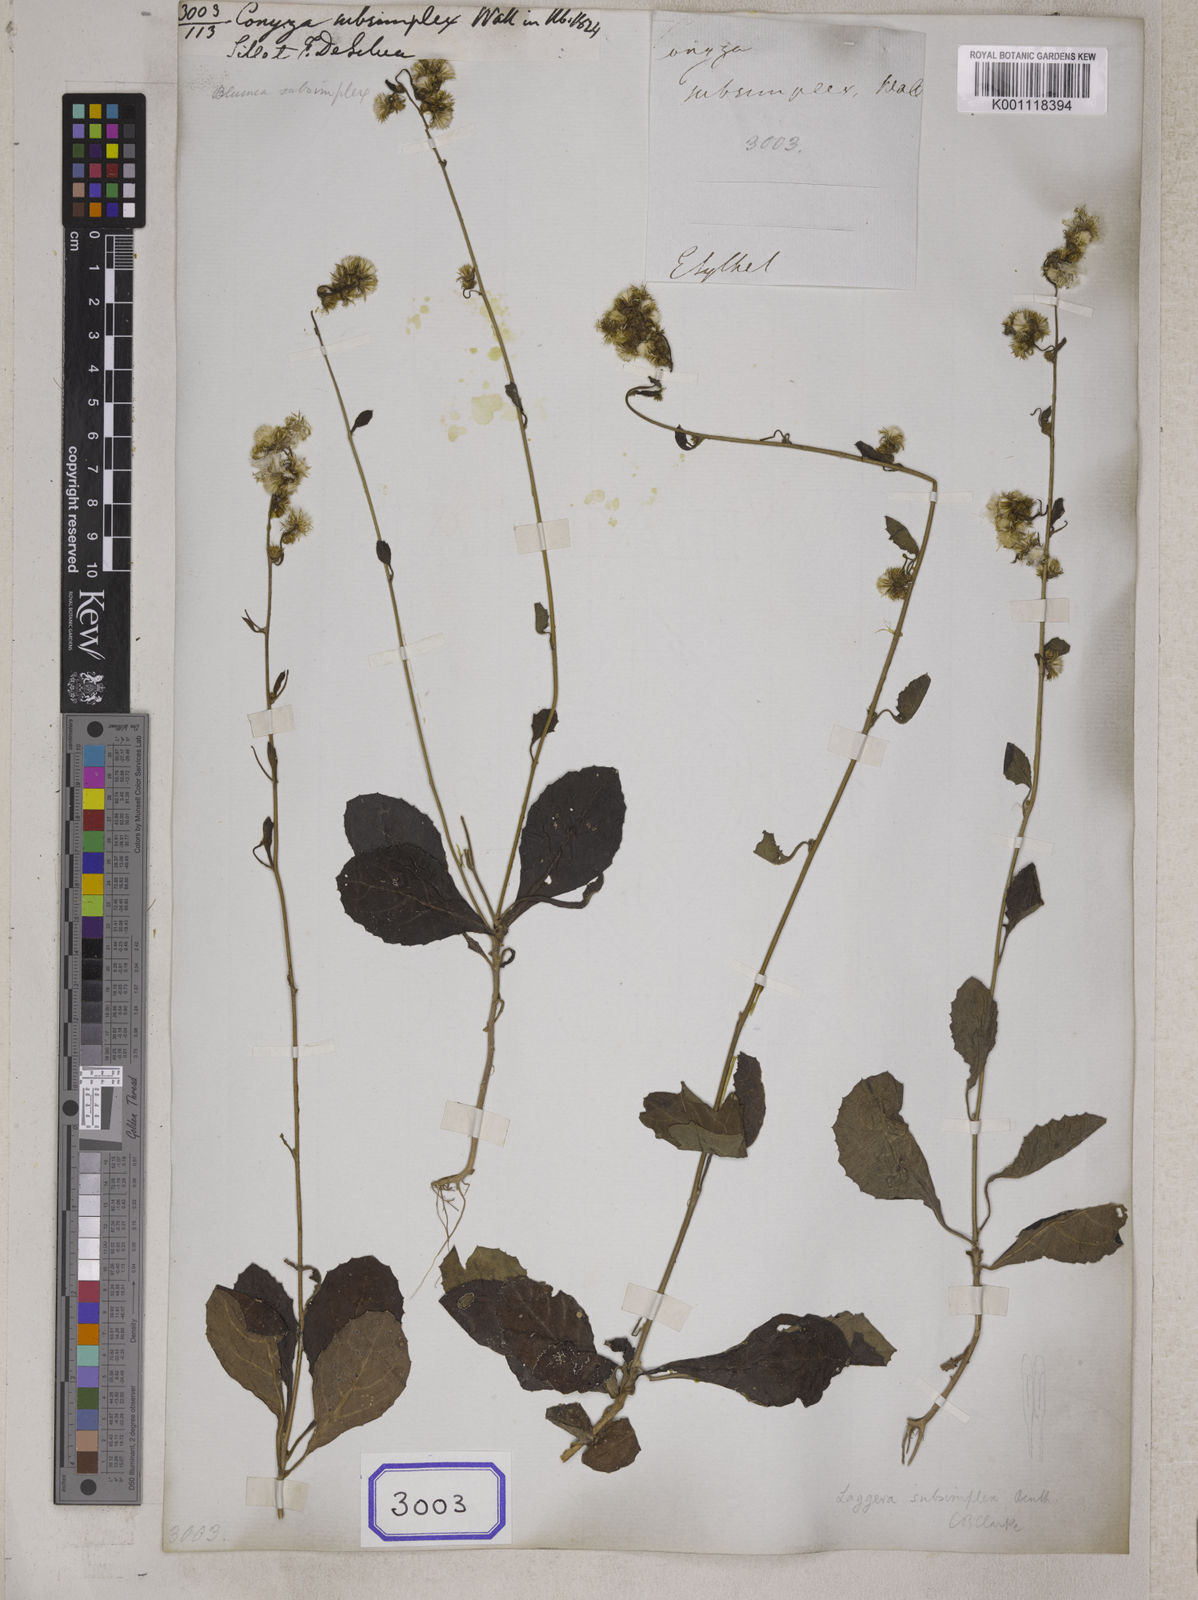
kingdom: Plantae
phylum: Tracheophyta
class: Magnoliopsida
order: Asterales
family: Asteraceae
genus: Pluchea
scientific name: Pluchea paniculata
